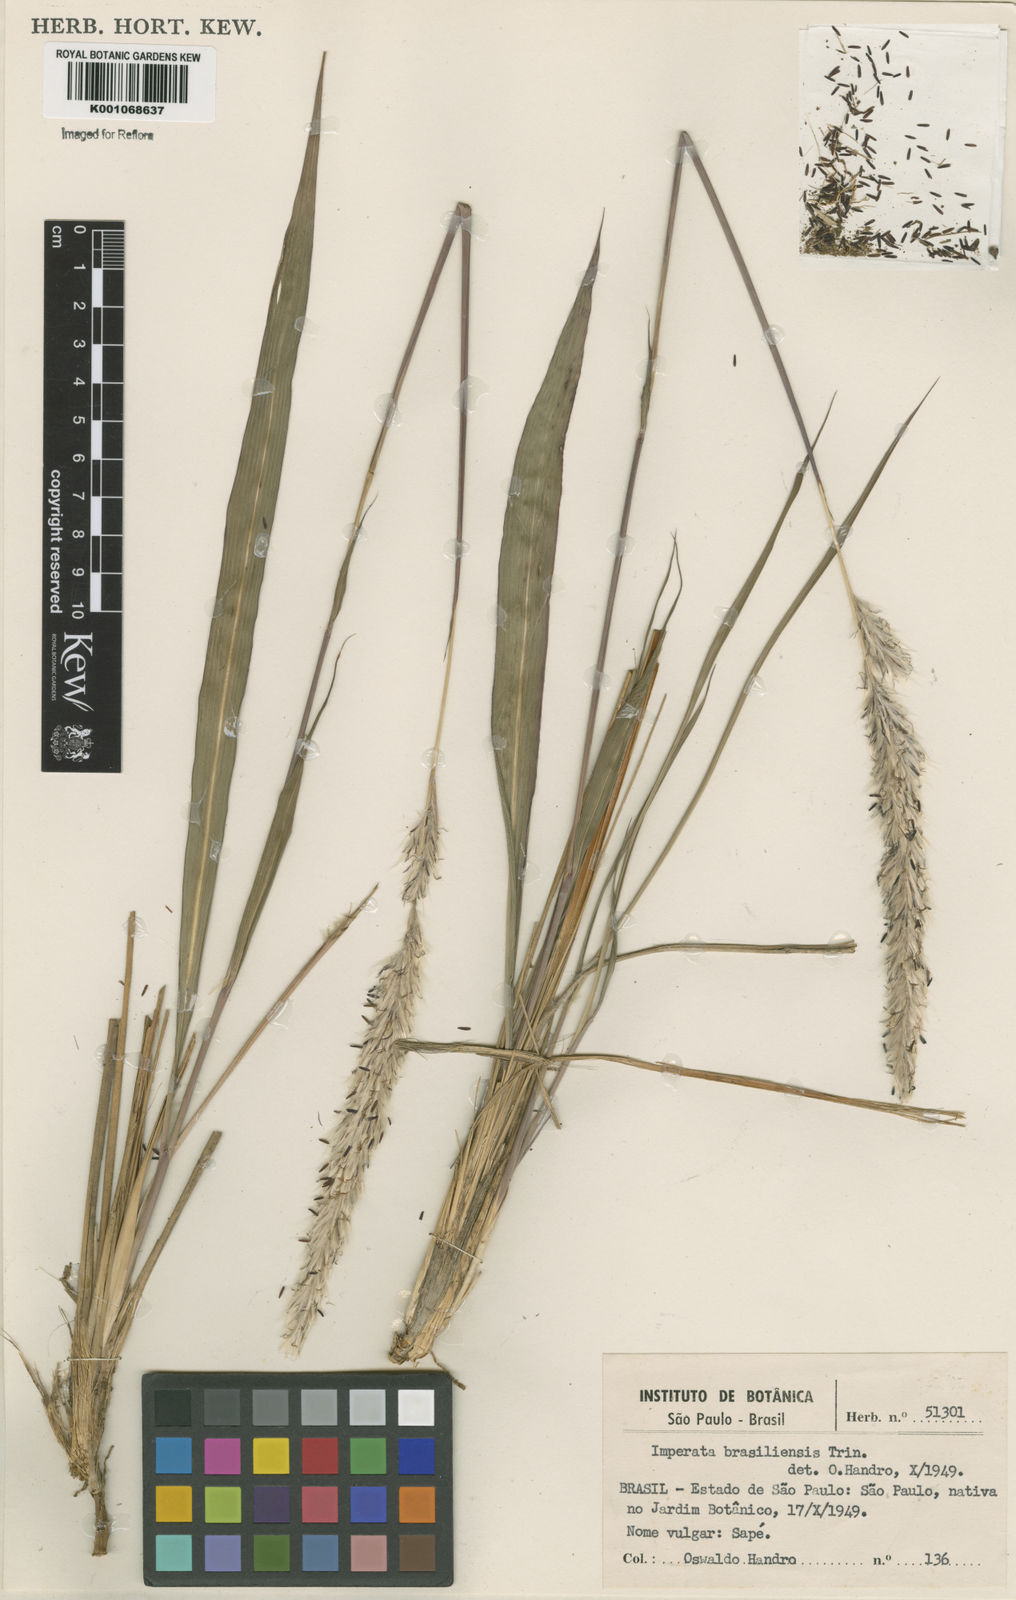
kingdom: Plantae
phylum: Tracheophyta
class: Liliopsida
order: Poales
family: Poaceae
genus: Imperata
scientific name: Imperata brasiliensis
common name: Brazilian satintail
